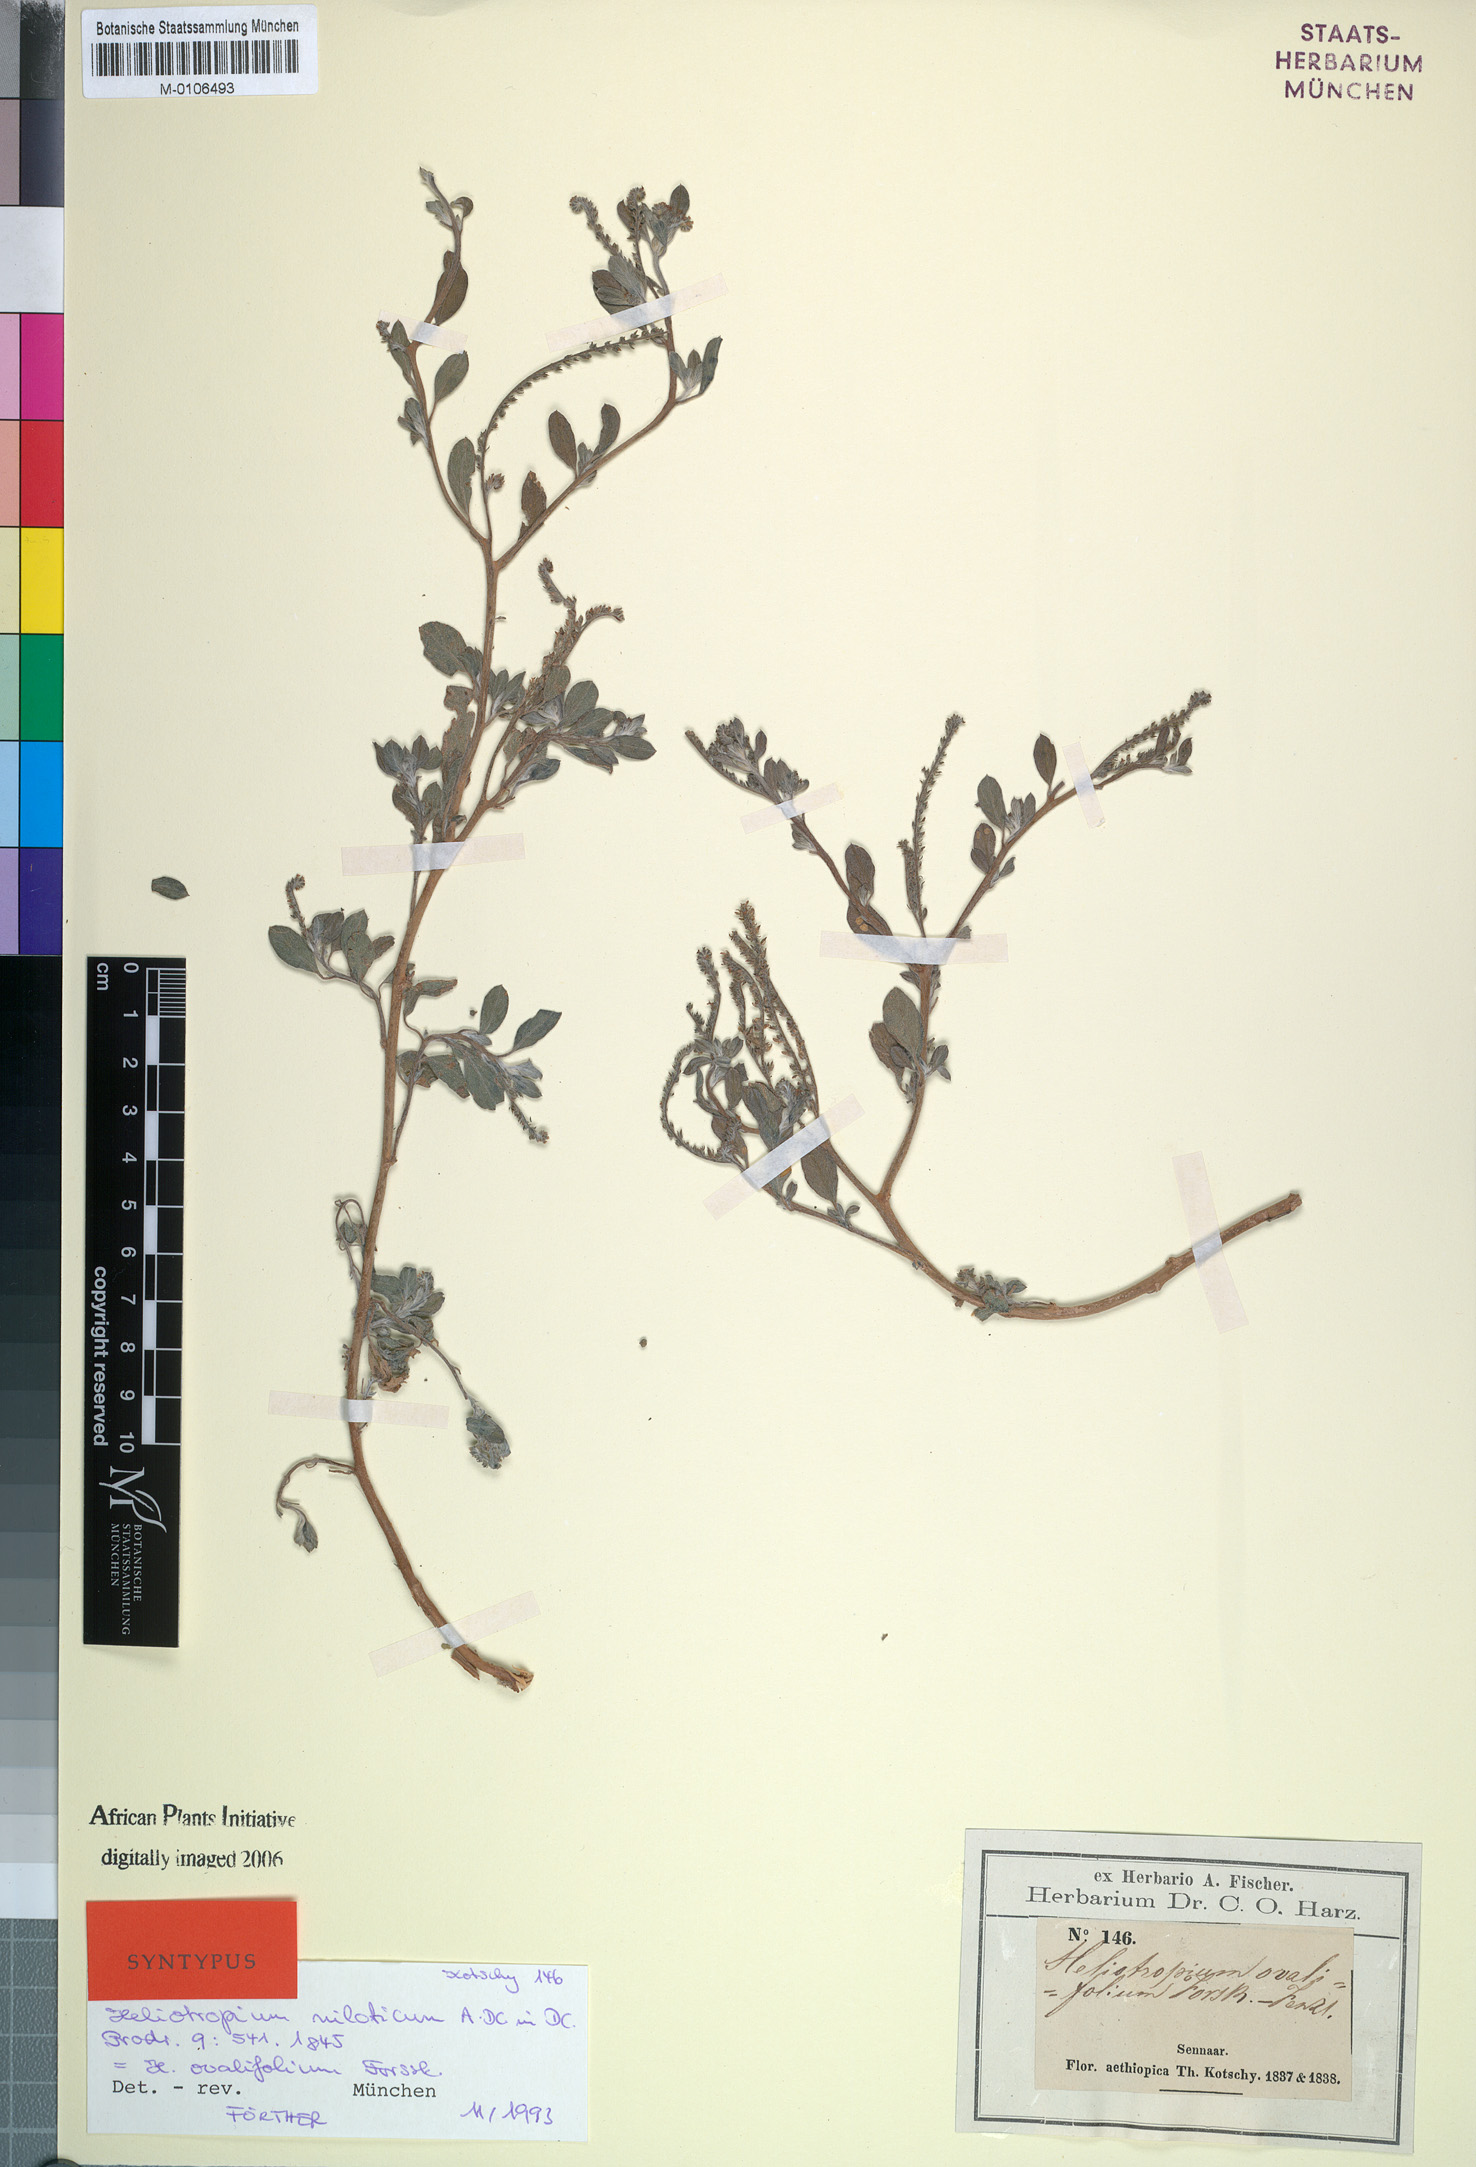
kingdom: Plantae
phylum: Tracheophyta
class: Magnoliopsida
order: Boraginales
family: Heliotropiaceae
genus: Euploca
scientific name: Euploca ovalifolia
